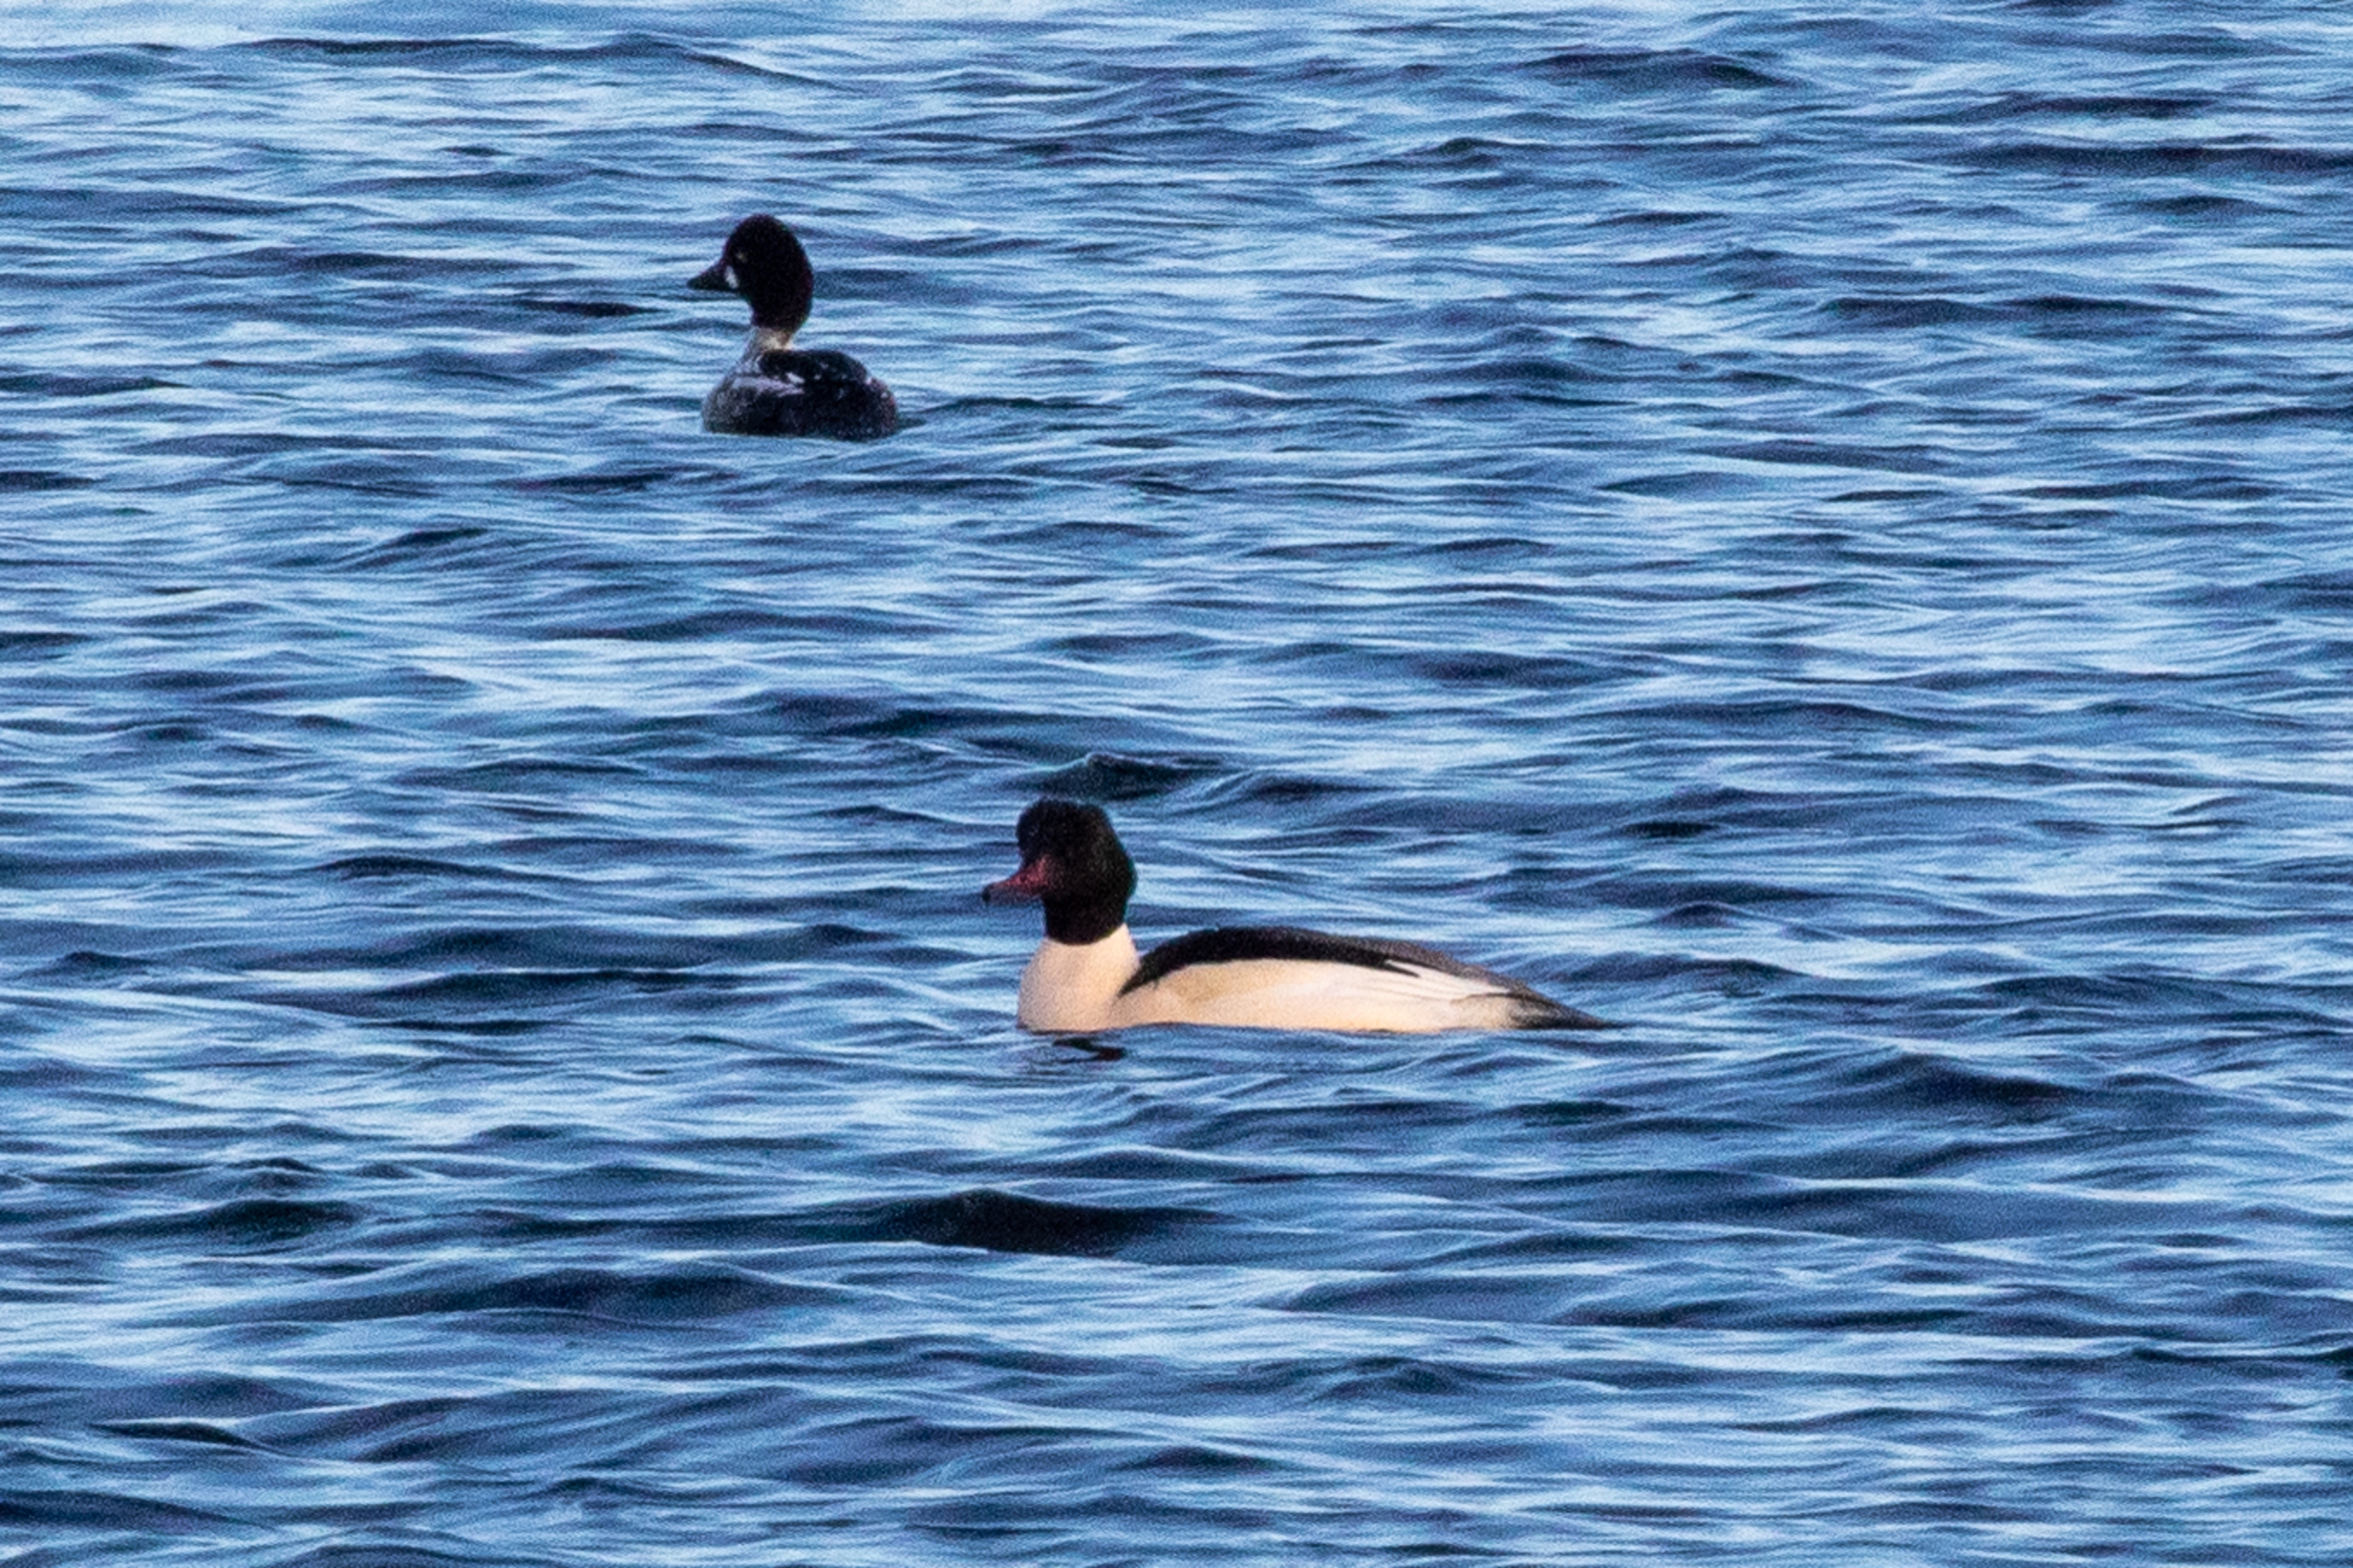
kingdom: Animalia
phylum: Chordata
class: Aves
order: Anseriformes
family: Anatidae
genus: Mergus
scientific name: Mergus merganser
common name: Stor skallesluger
